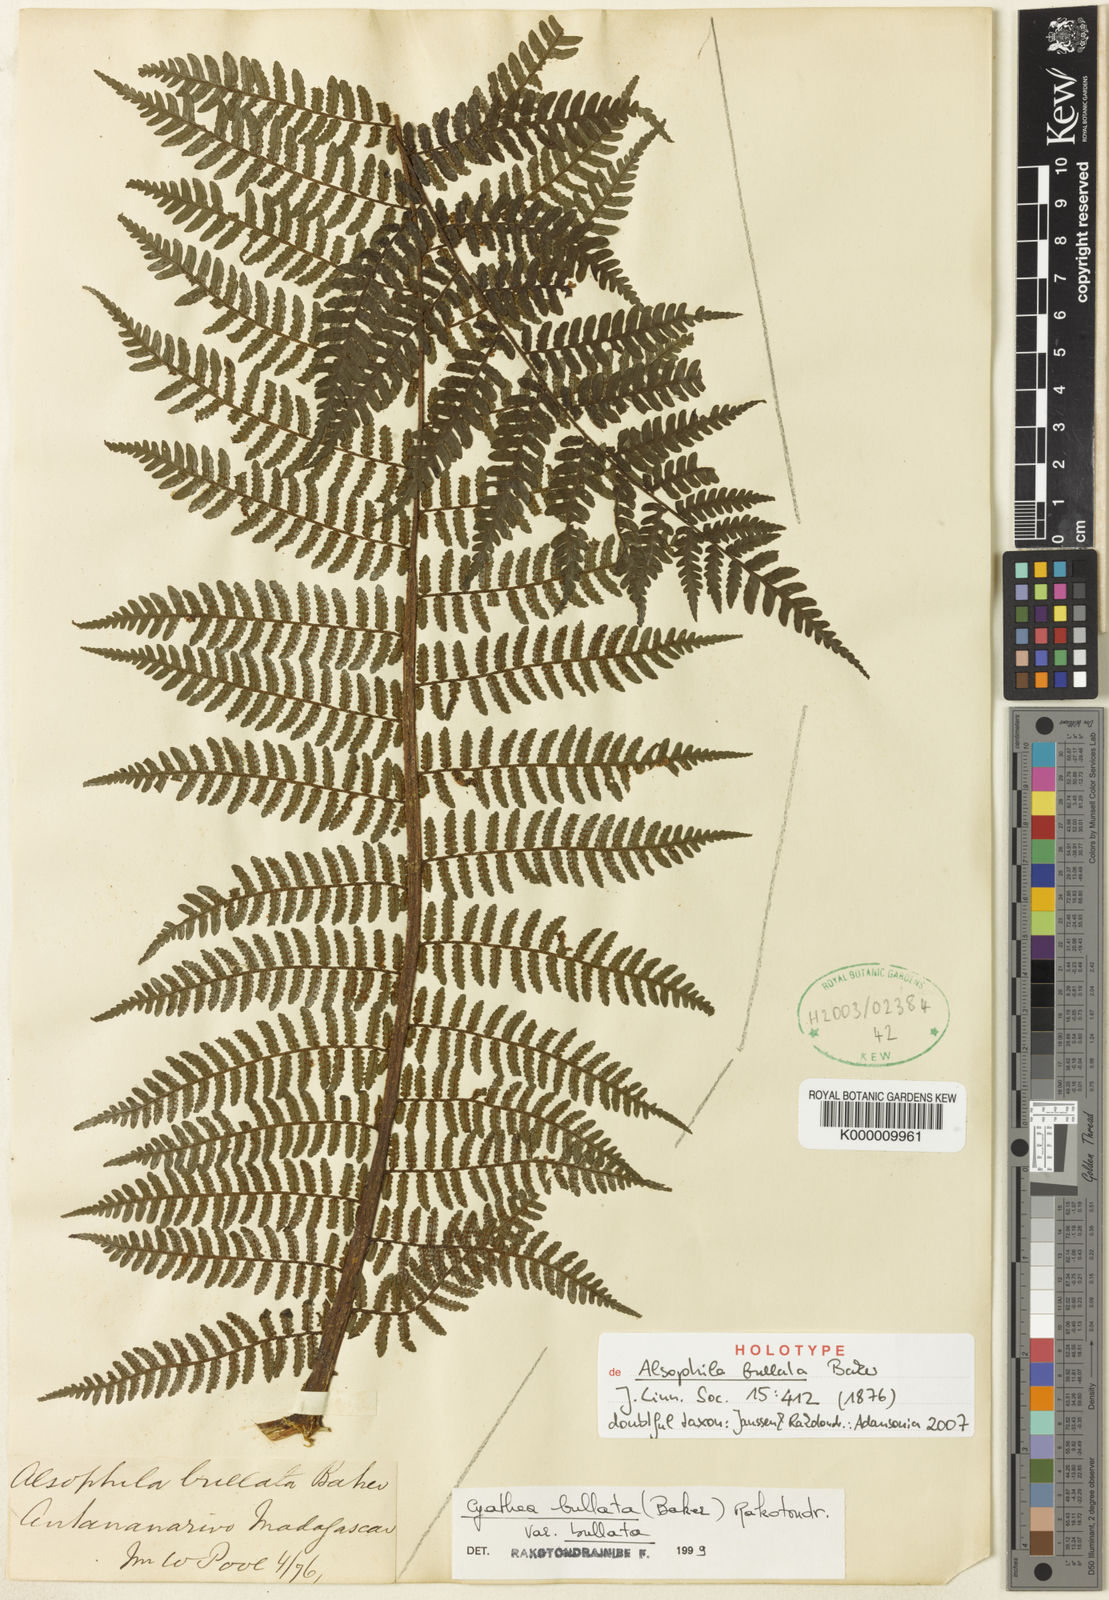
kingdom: Plantae
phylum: Tracheophyta
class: Polypodiopsida
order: Cyatheales
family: Cyatheaceae
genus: Gymnosphaera
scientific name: Gymnosphaera boivinii
